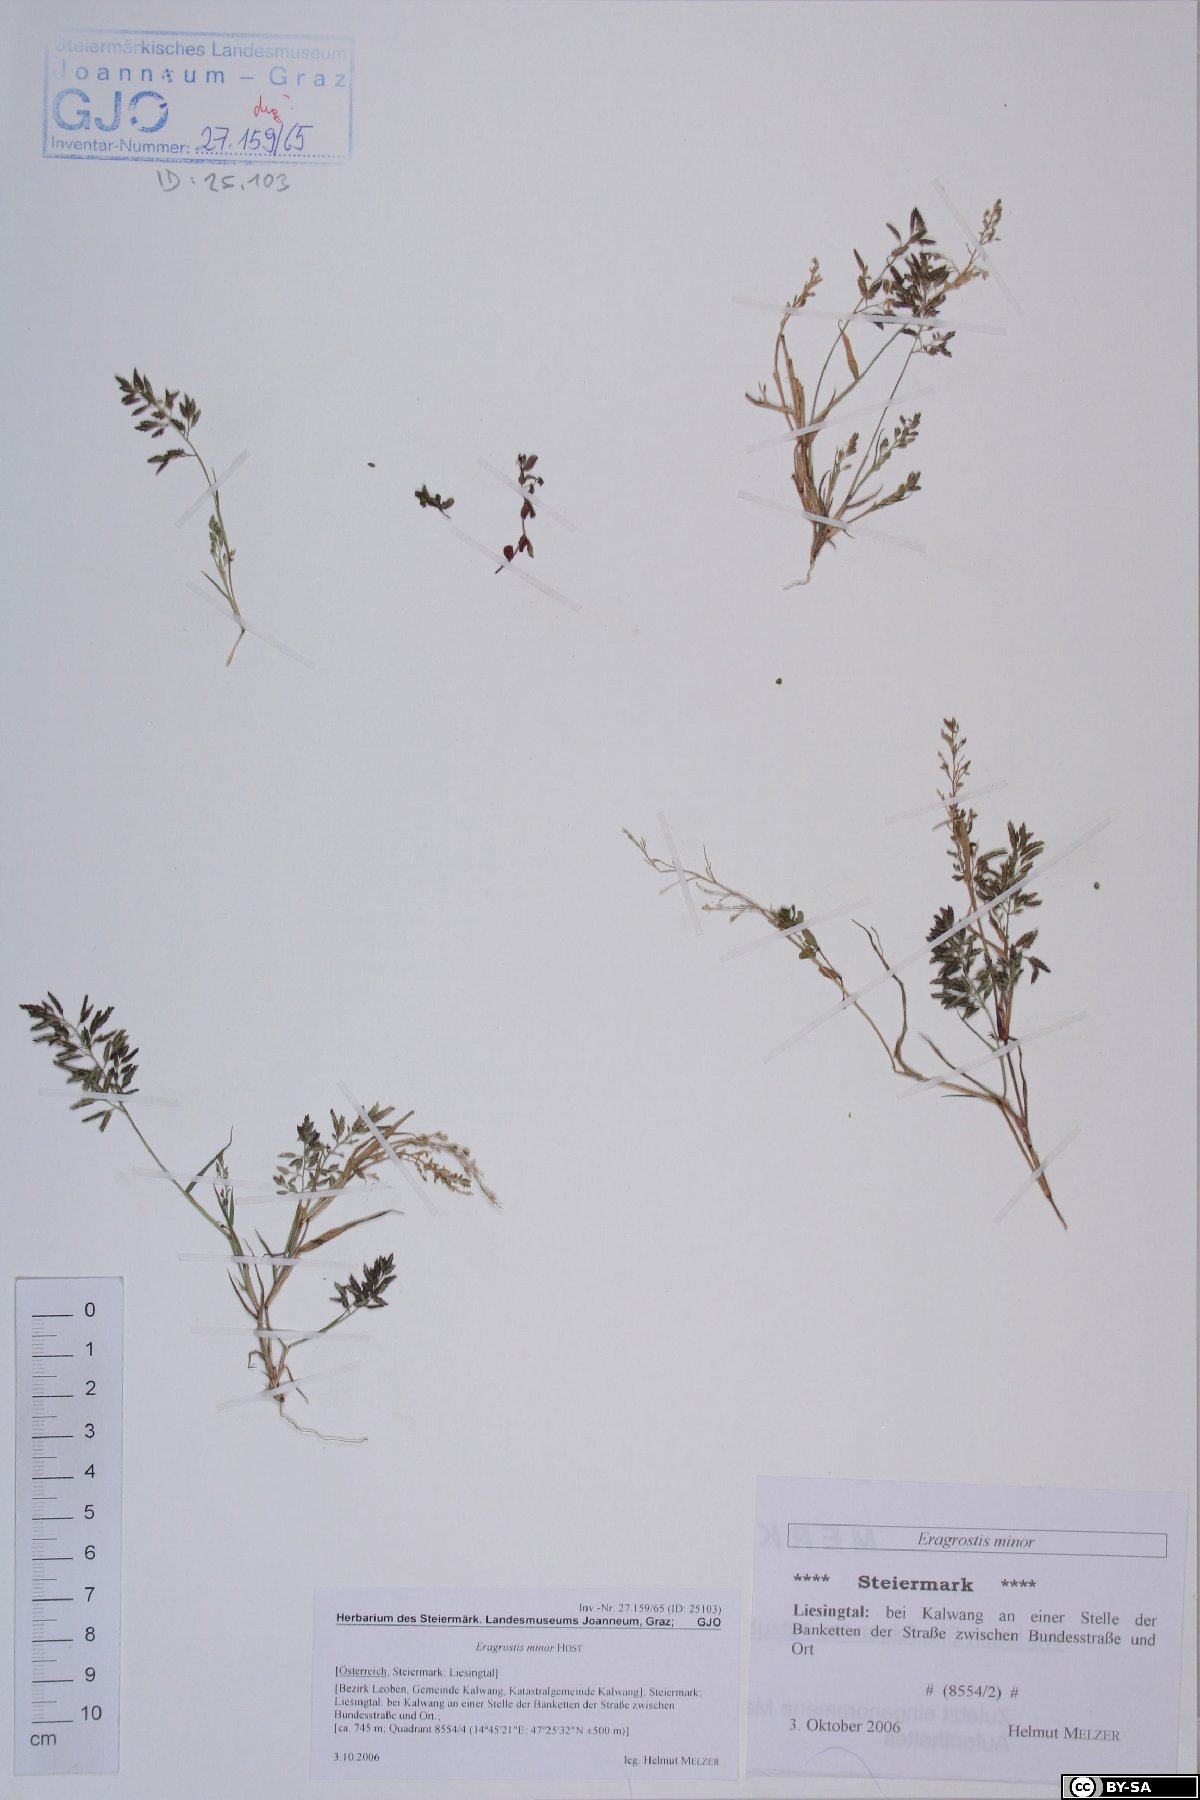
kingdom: Plantae
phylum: Tracheophyta
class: Liliopsida
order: Poales
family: Poaceae
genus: Eragrostis
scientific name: Eragrostis minor
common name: Small love-grass
